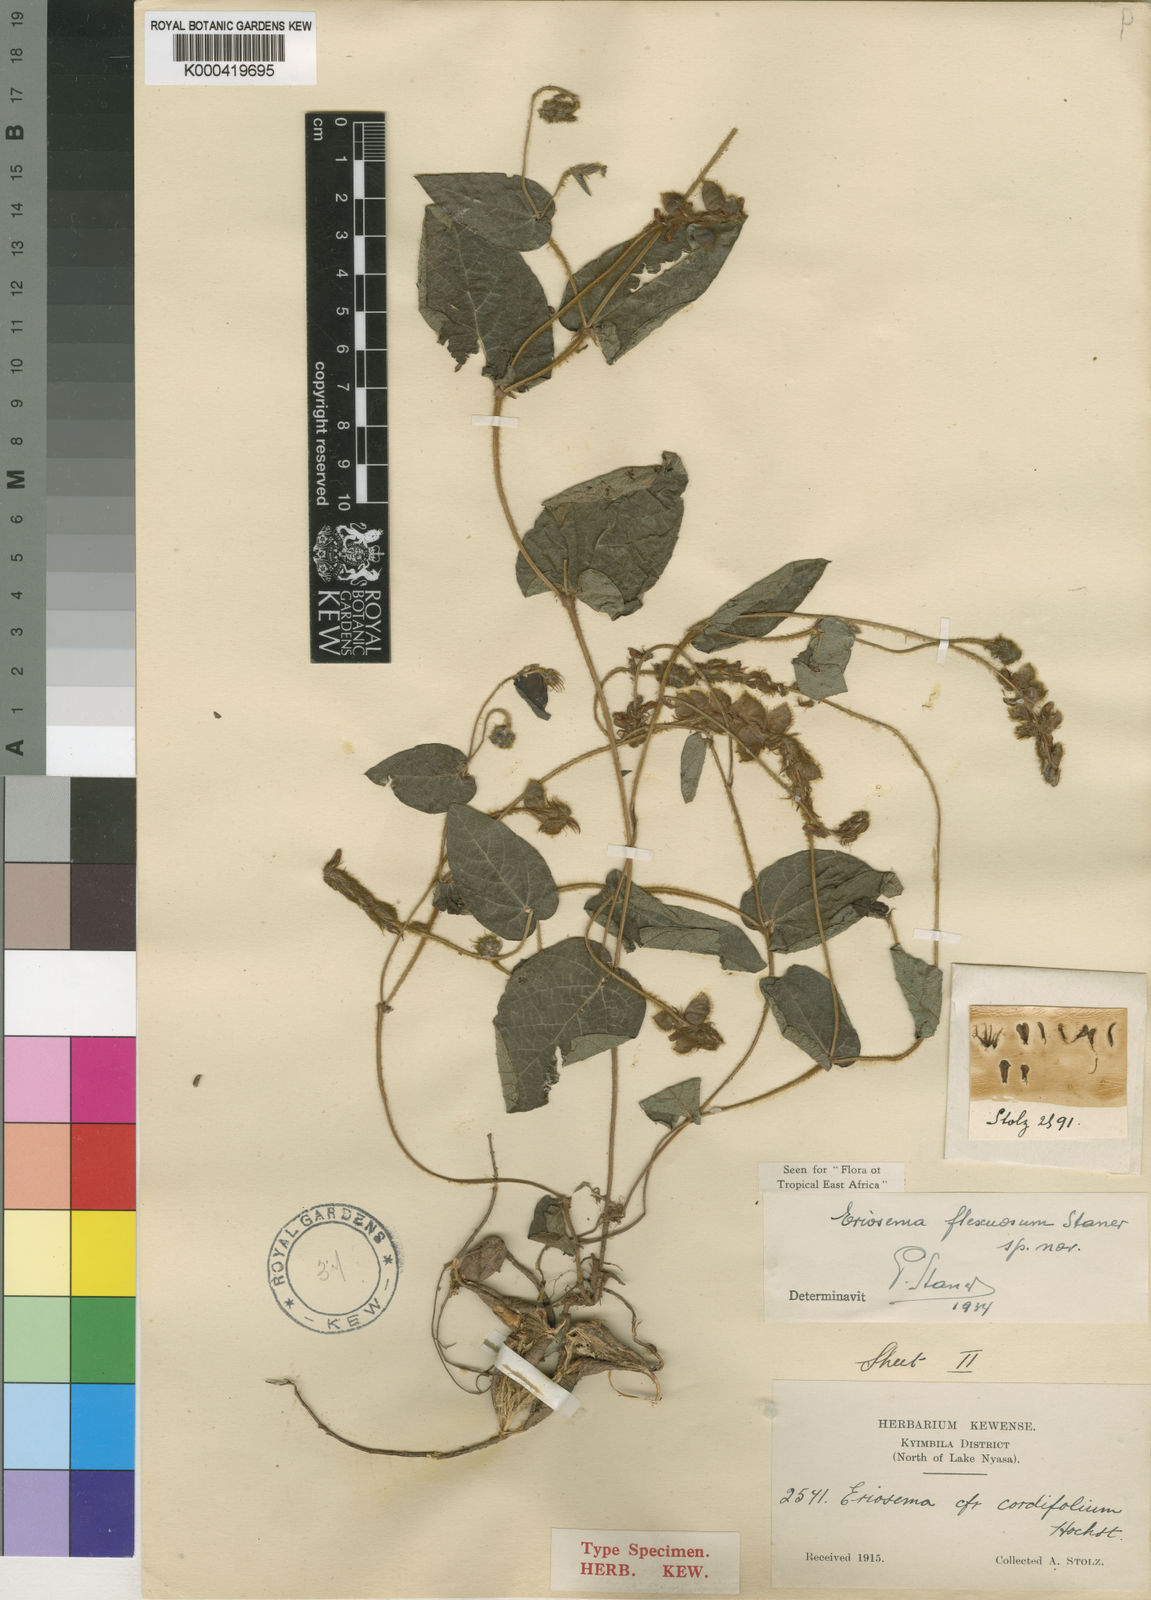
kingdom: Plantae
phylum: Tracheophyta
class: Magnoliopsida
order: Fabales
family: Fabaceae
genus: Eriosema
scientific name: Eriosema flexuosum
